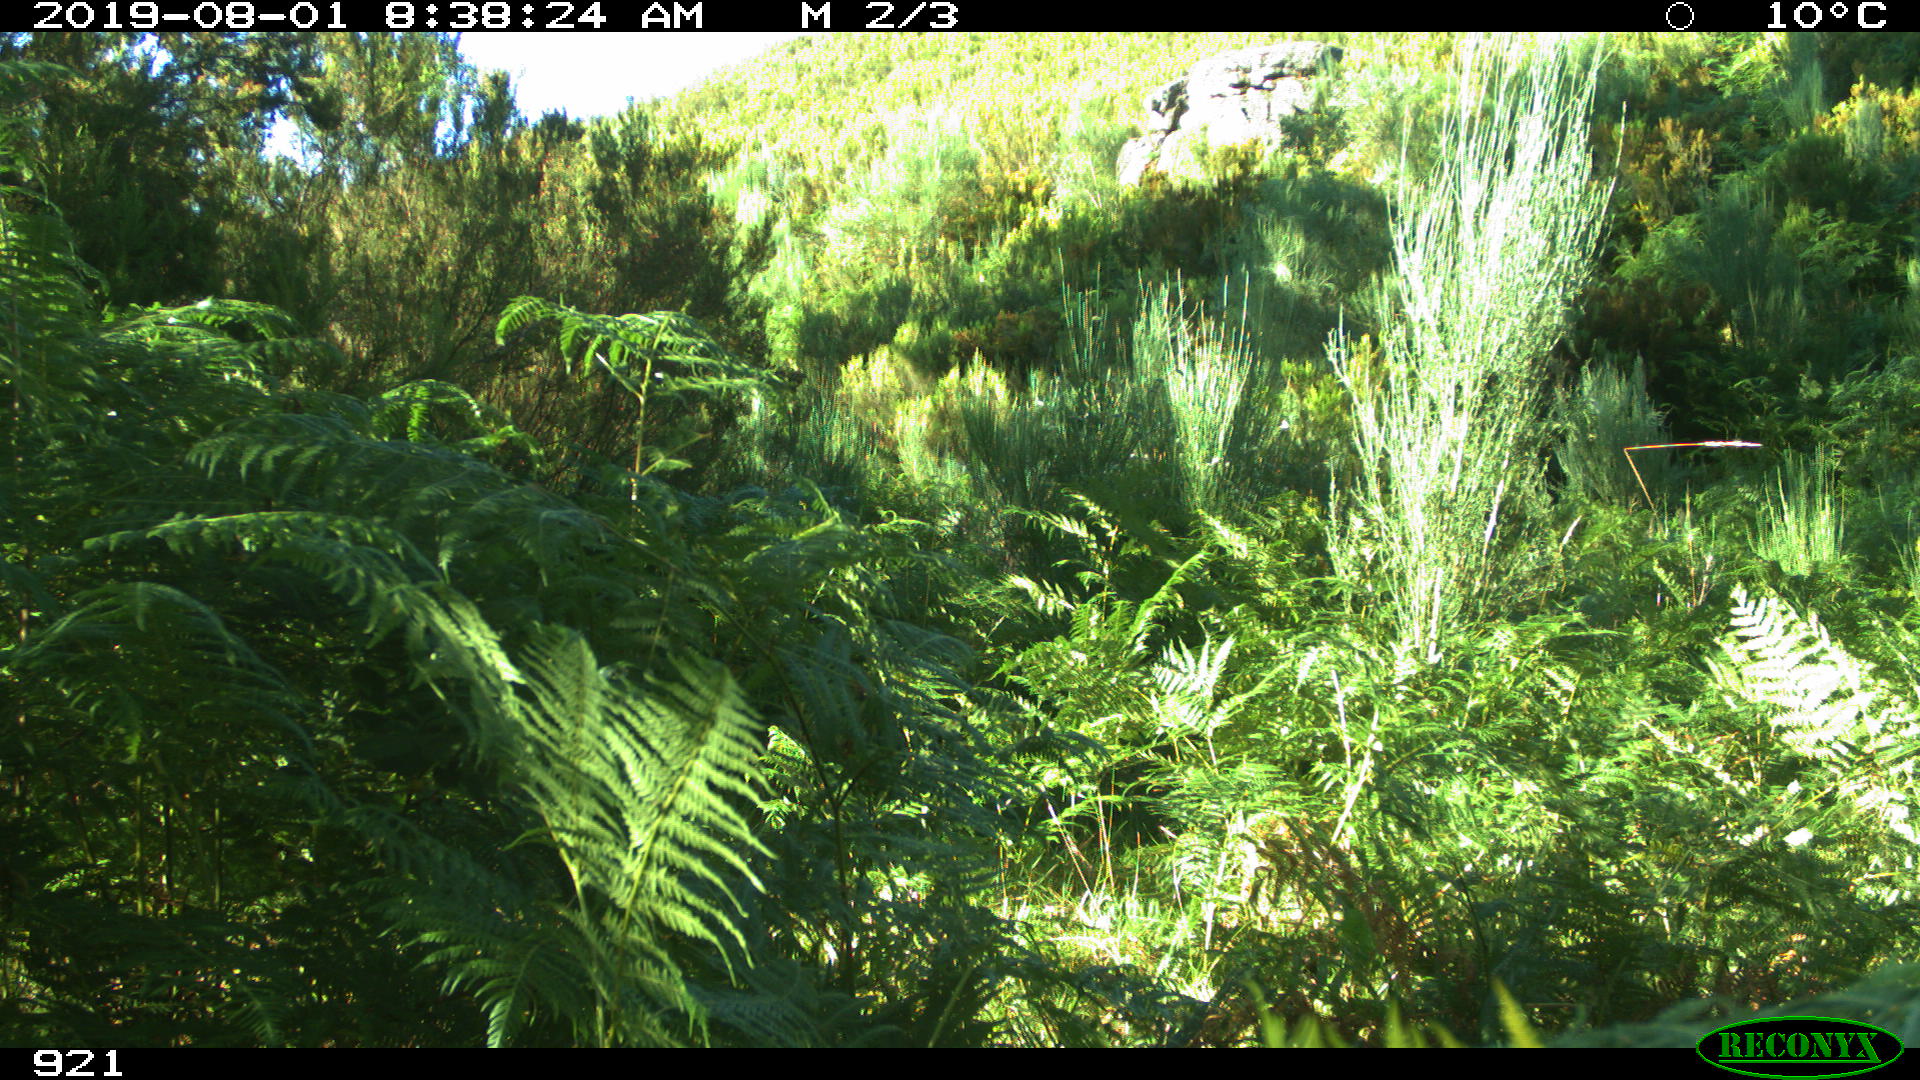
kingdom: Animalia
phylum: Chordata
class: Mammalia
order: Perissodactyla
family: Equidae
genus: Equus
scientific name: Equus caballus
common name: Horse
